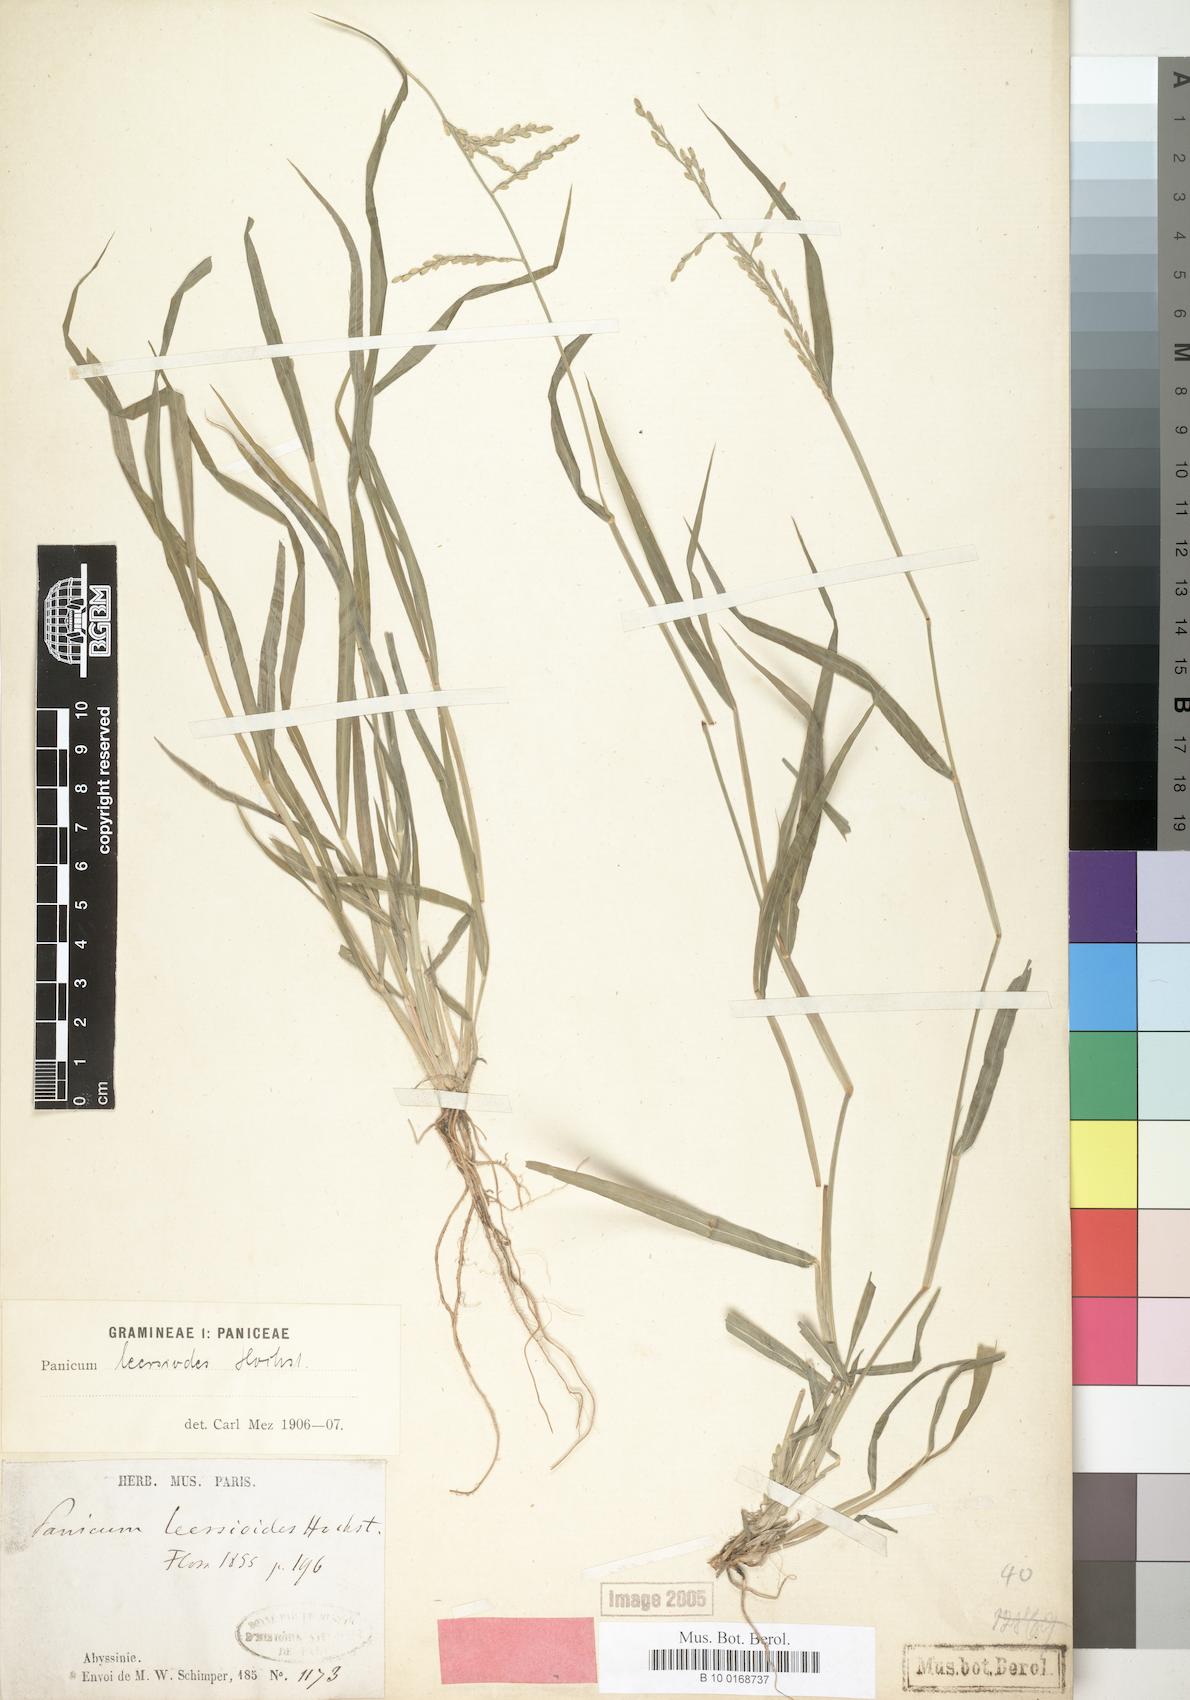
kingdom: Plantae
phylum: Tracheophyta
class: Liliopsida
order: Poales
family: Poaceae
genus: Urochloa
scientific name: Urochloa leersioides
